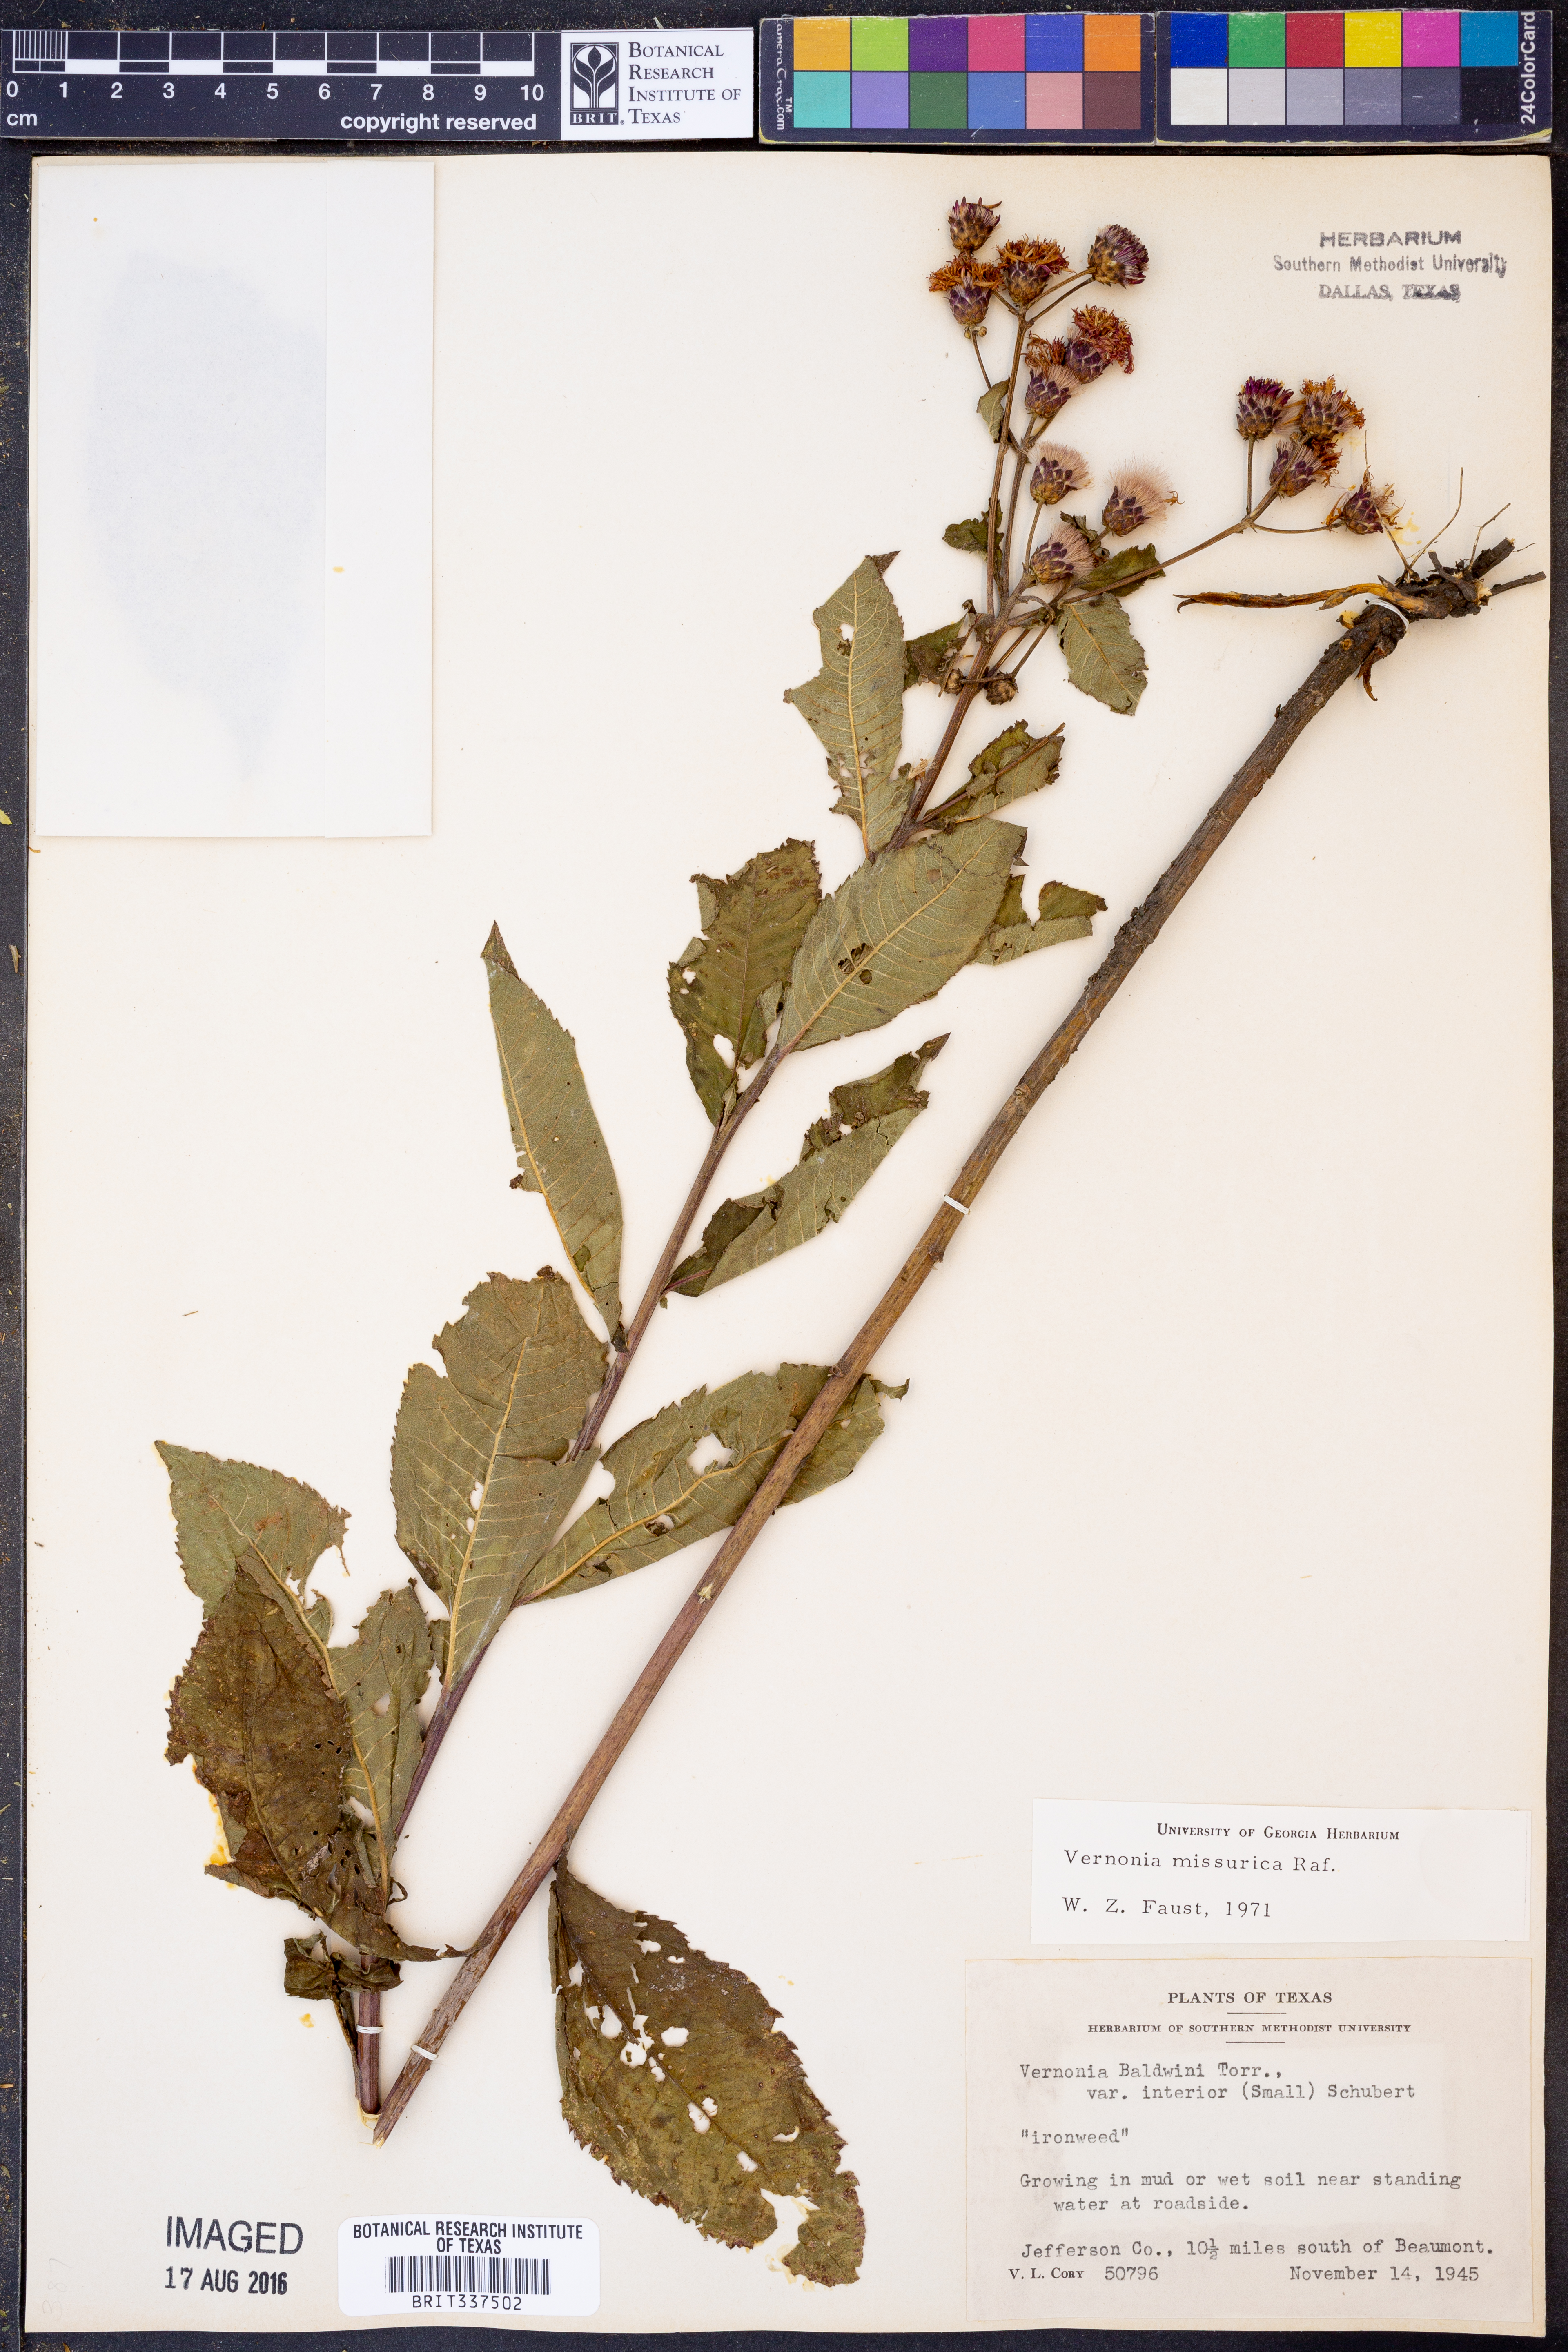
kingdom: Plantae
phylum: Tracheophyta
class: Magnoliopsida
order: Asterales
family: Asteraceae
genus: Vernonia
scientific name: Vernonia missurica
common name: Missouri ironweed
